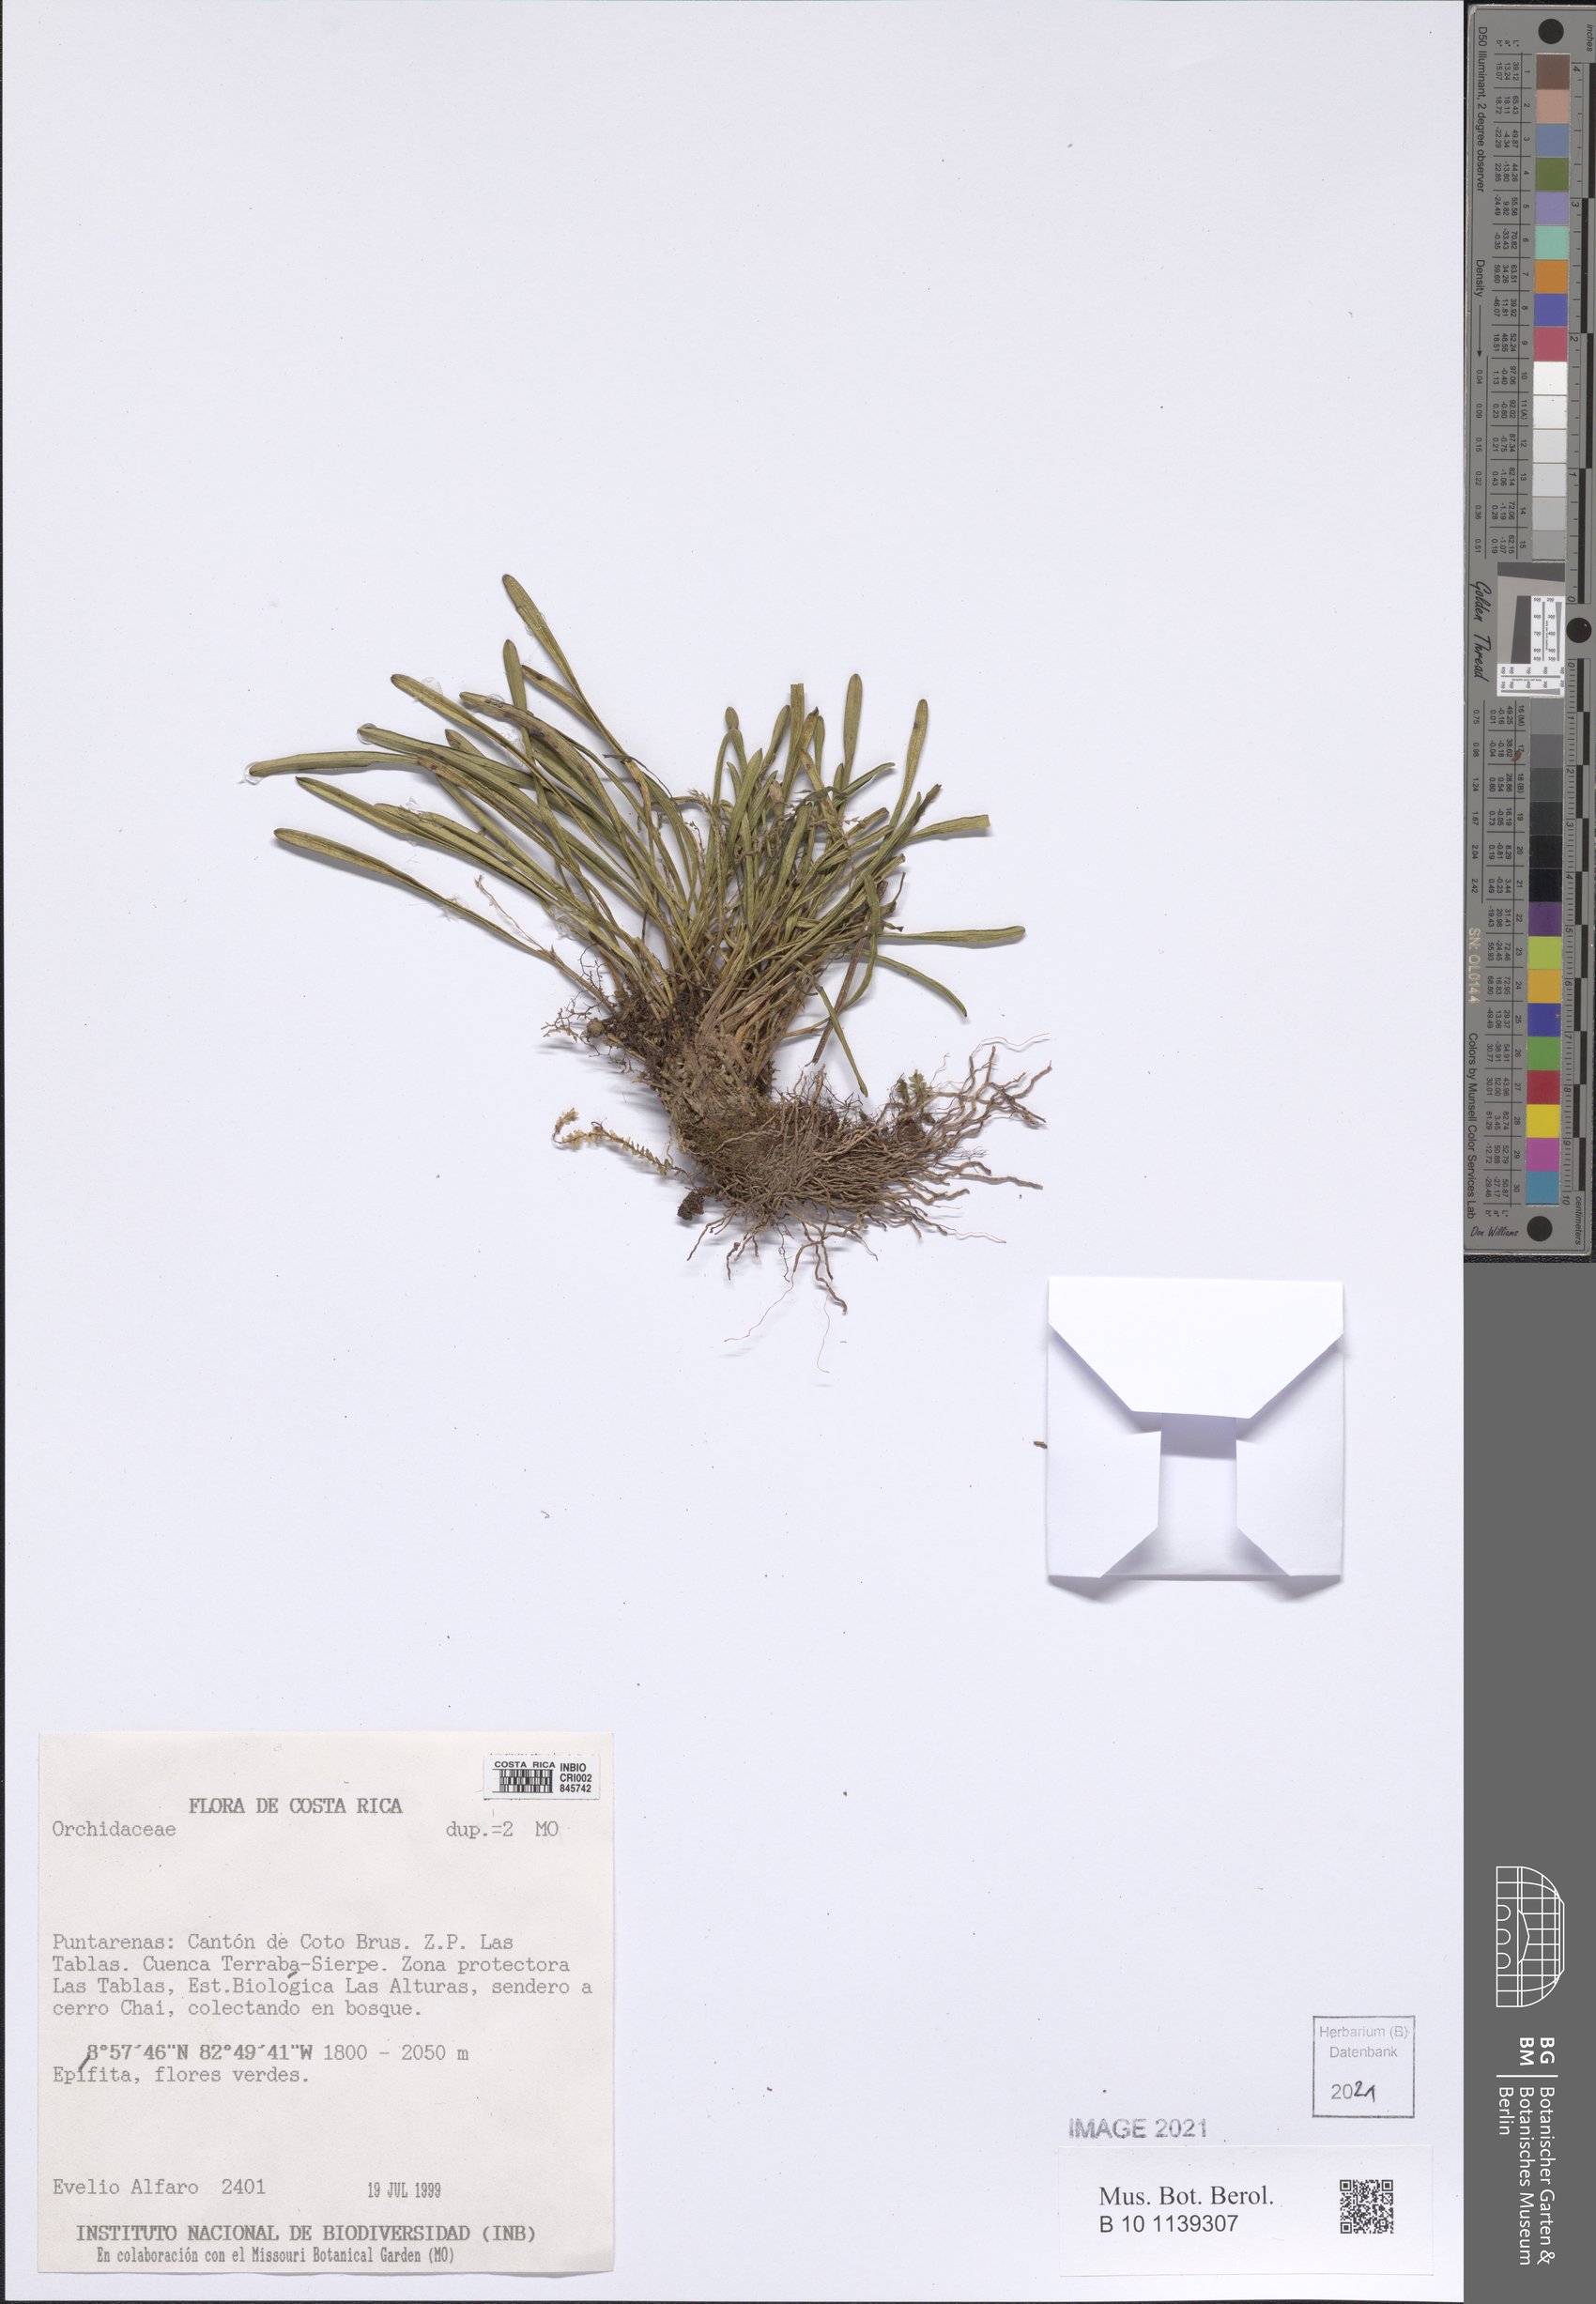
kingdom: Plantae
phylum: Tracheophyta
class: Liliopsida
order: Asparagales
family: Orchidaceae
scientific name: Orchidaceae
